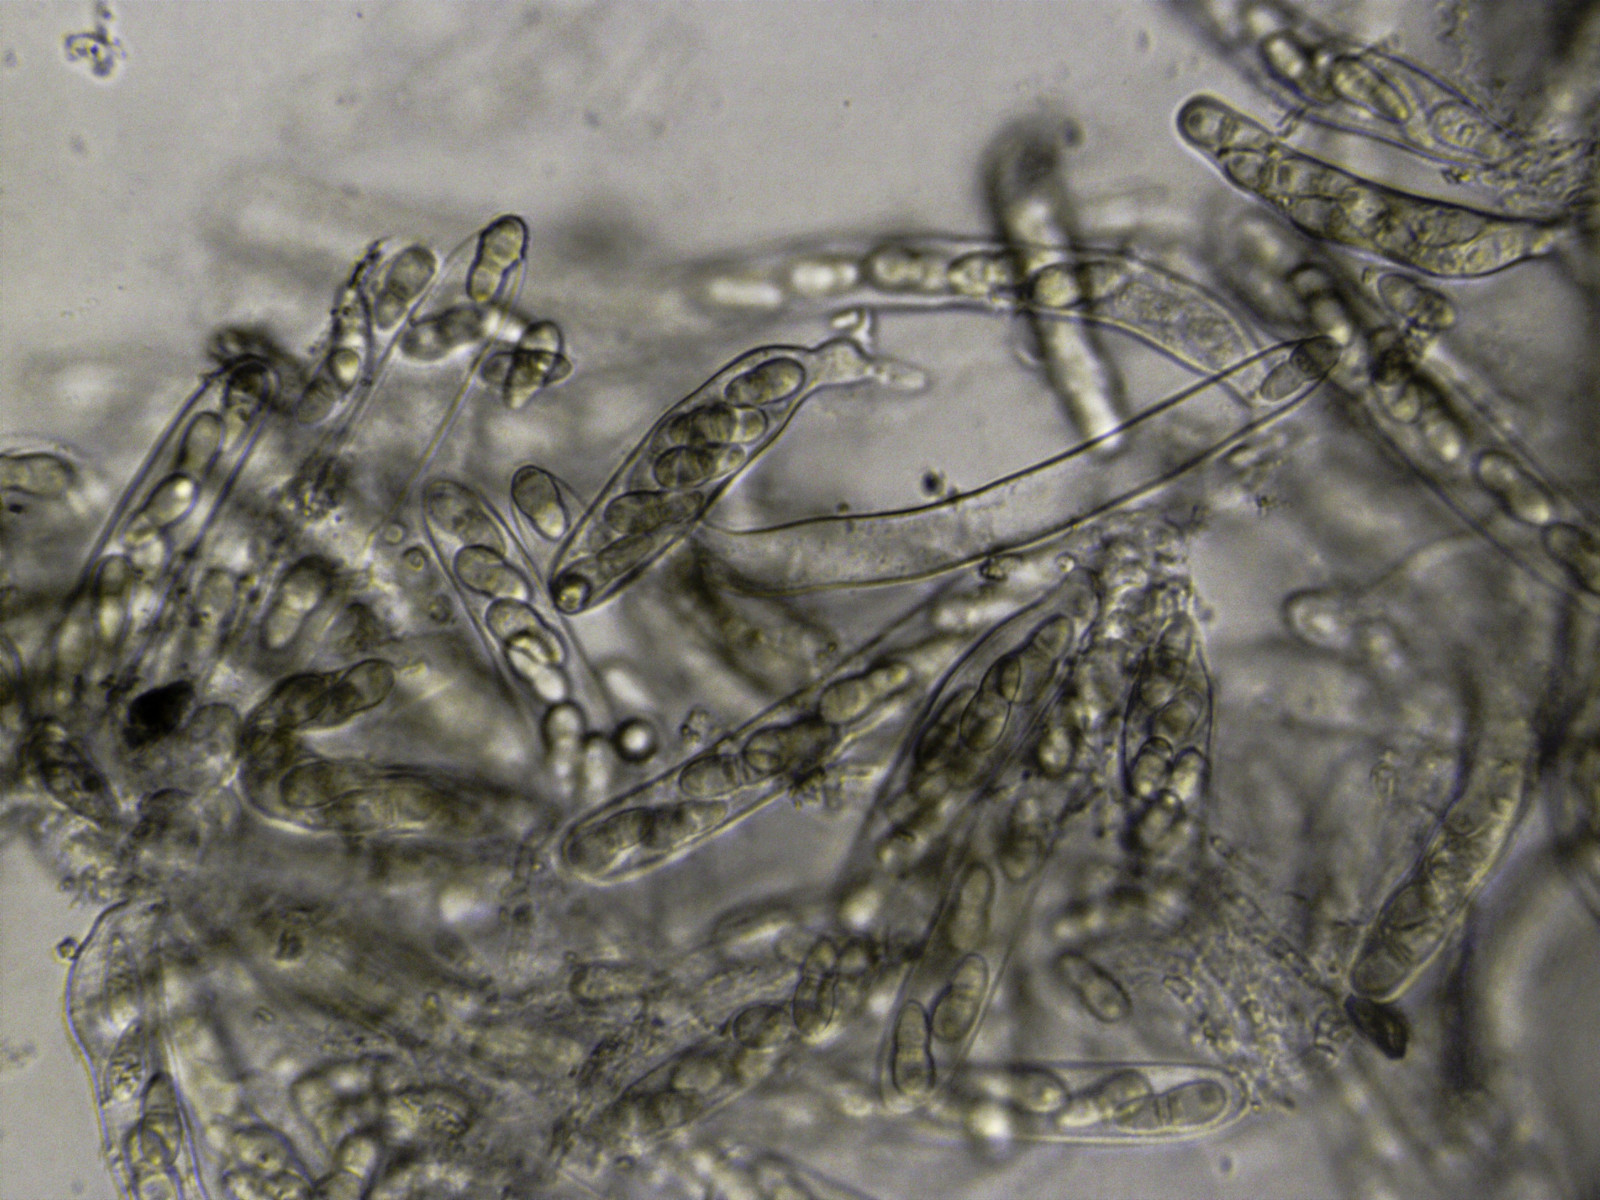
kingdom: Fungi
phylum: Ascomycota
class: Dothideomycetes
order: Venturiales
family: Venturiaceae
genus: Venturia
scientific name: Venturia rumicis
